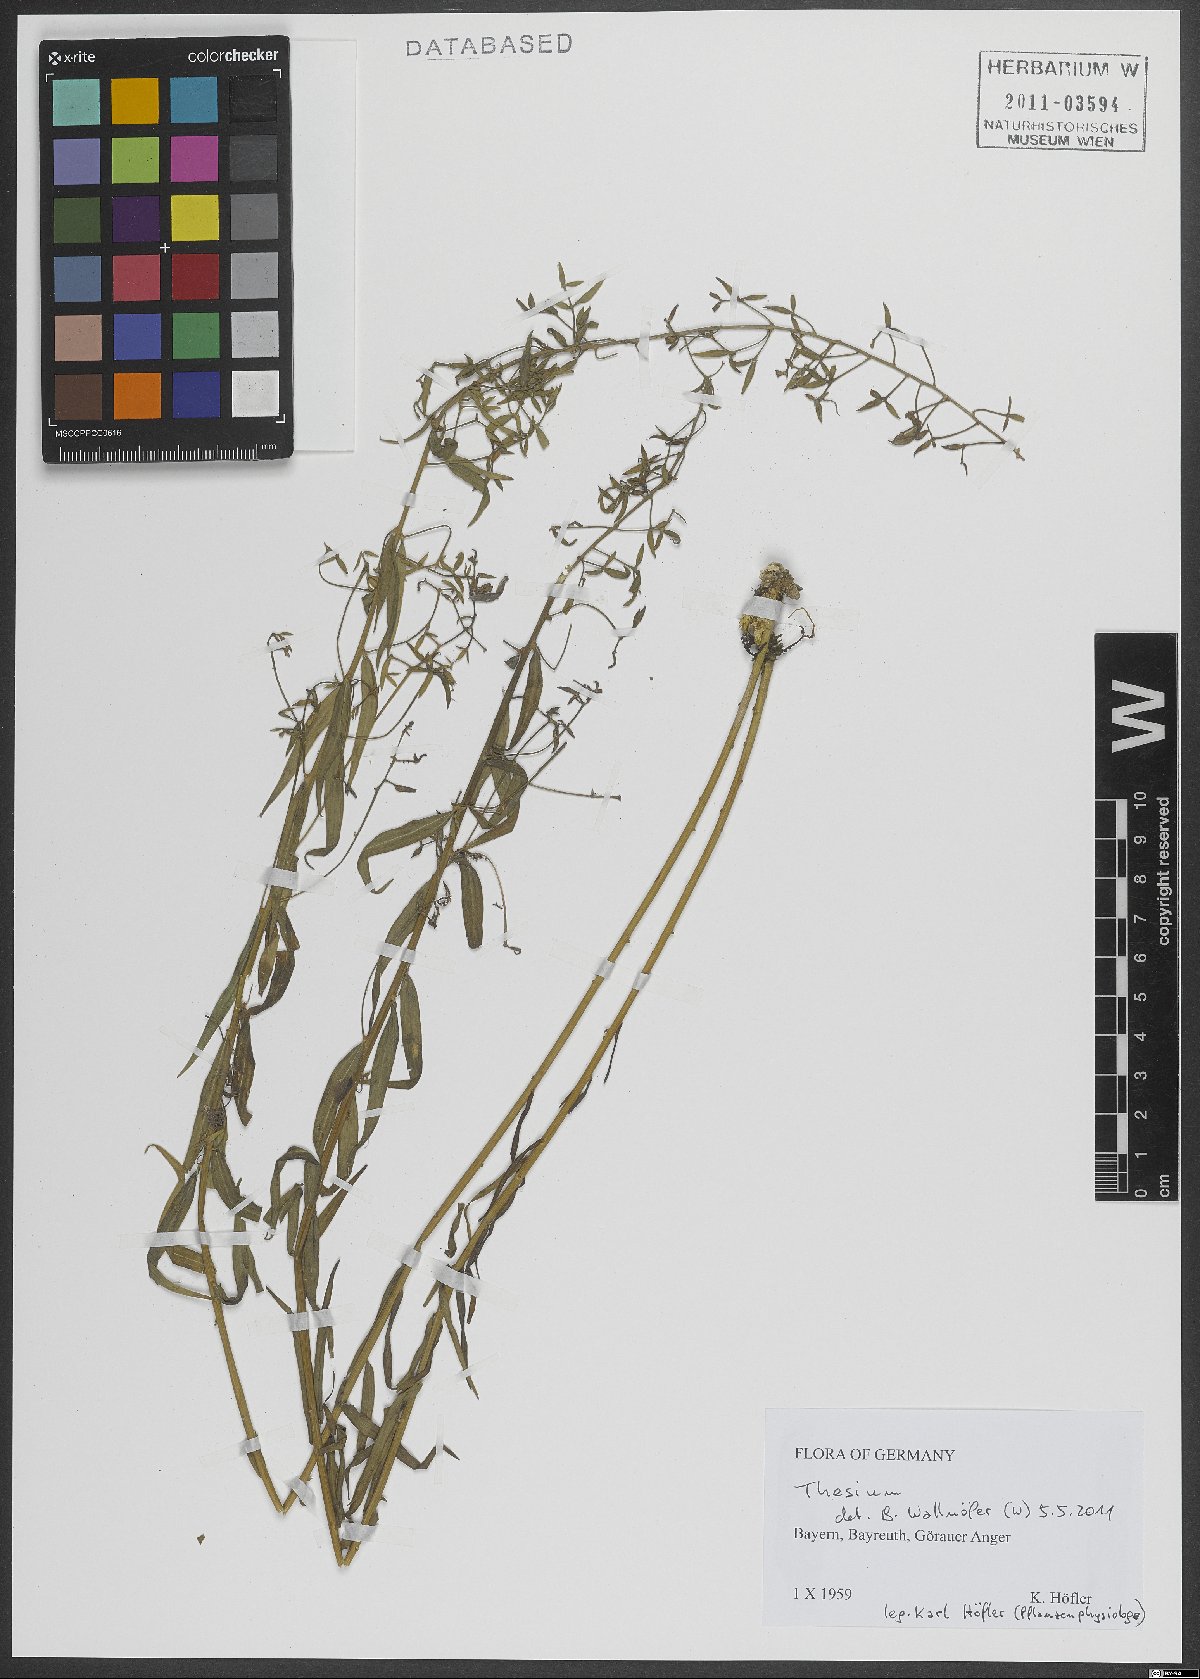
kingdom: Plantae
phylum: Tracheophyta
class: Magnoliopsida
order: Santalales
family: Thesiaceae
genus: Thesium
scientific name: Thesium
